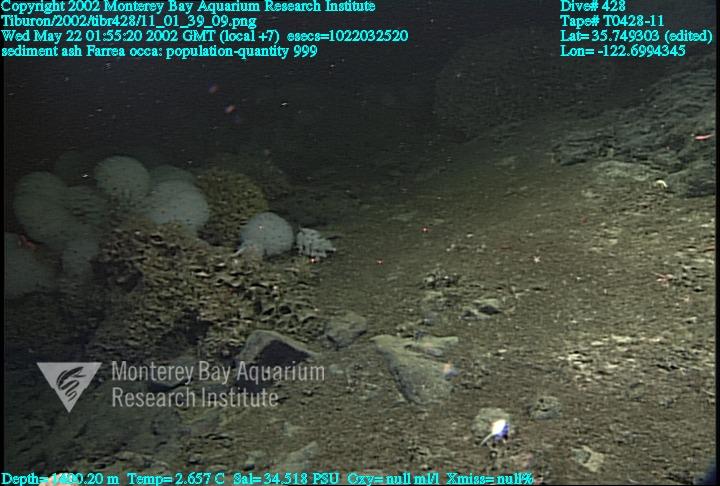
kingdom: Animalia
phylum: Porifera
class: Hexactinellida
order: Sceptrulophora
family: Farreidae
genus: Farrea
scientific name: Farrea occa
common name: Reversed glass sponge
